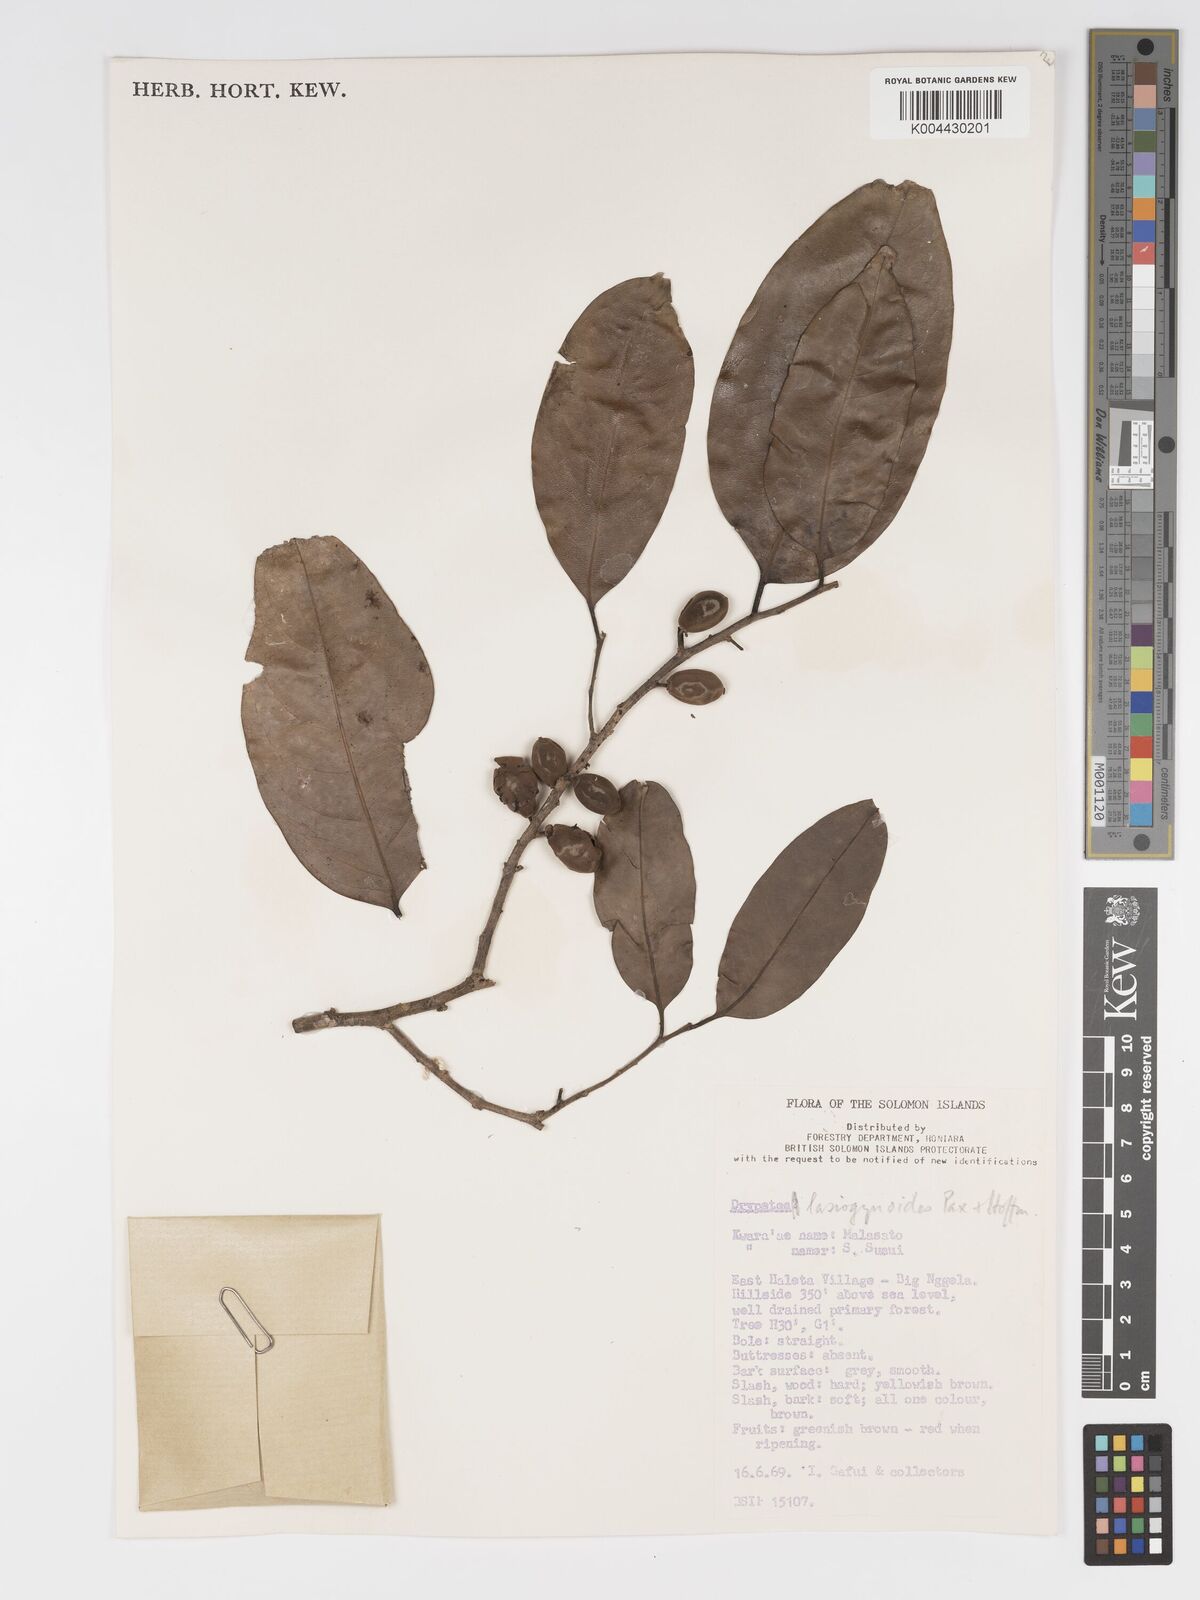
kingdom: Plantae
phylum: Tracheophyta
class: Magnoliopsida
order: Malpighiales
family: Putranjivaceae
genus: Drypetes
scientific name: Drypetes lasiogynoides
